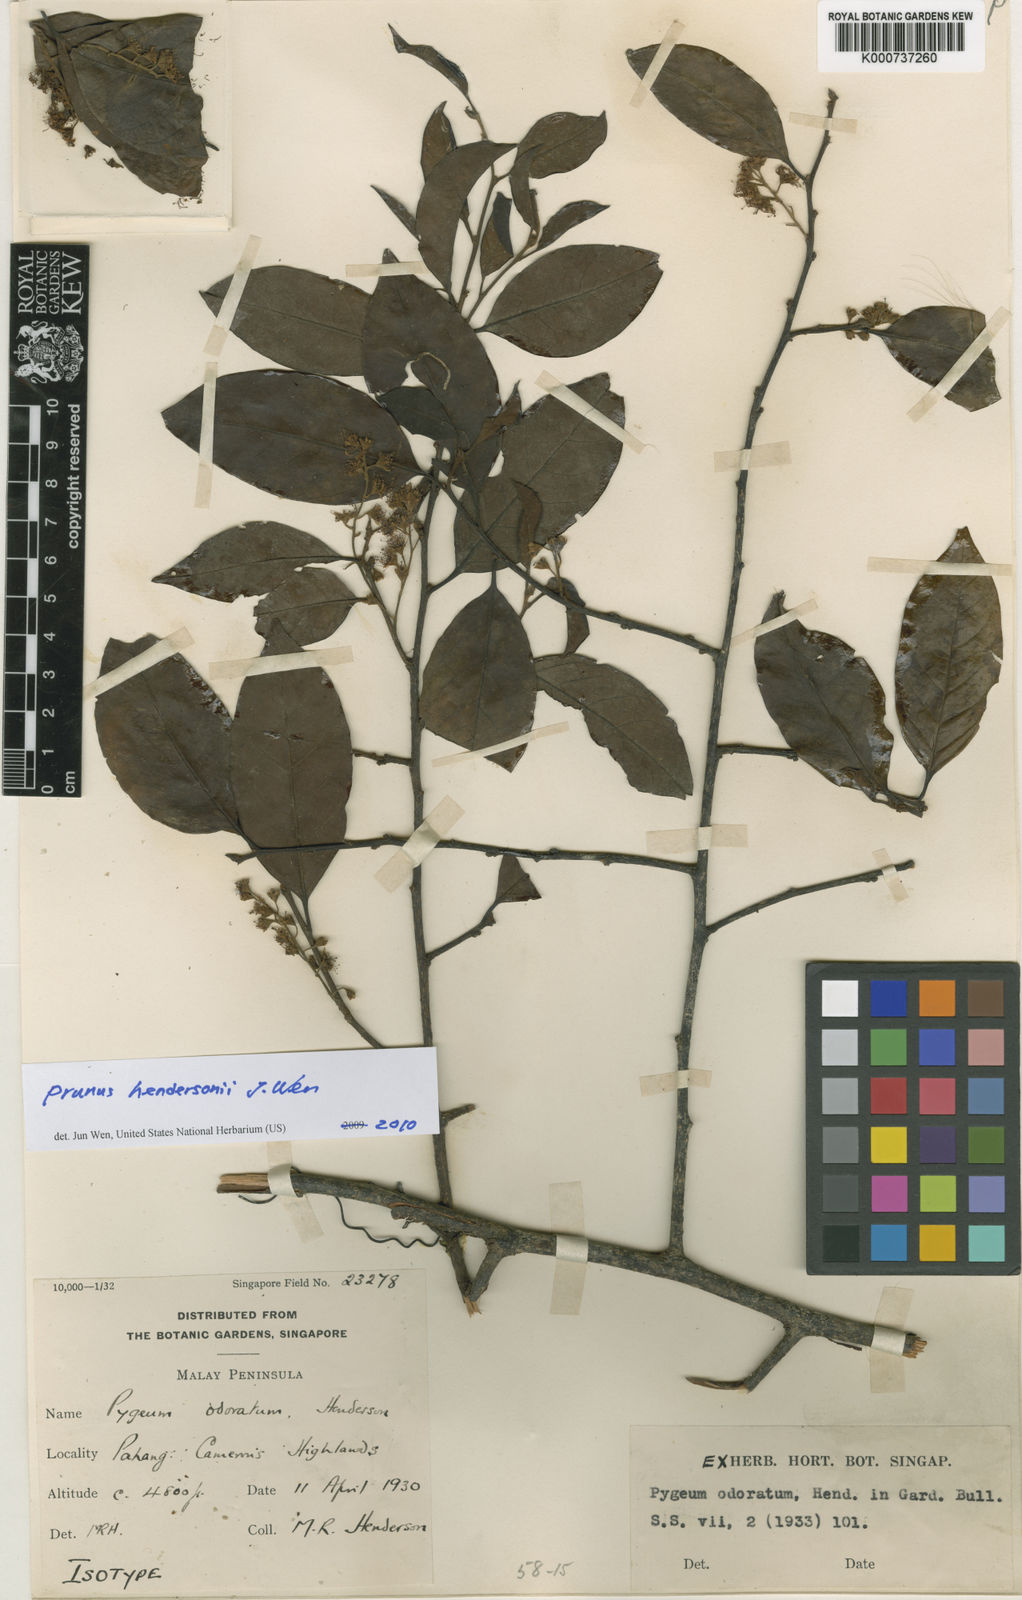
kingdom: Plantae
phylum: Tracheophyta
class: Magnoliopsida
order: Rosales
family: Rosaceae
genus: Prunus
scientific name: Prunus
